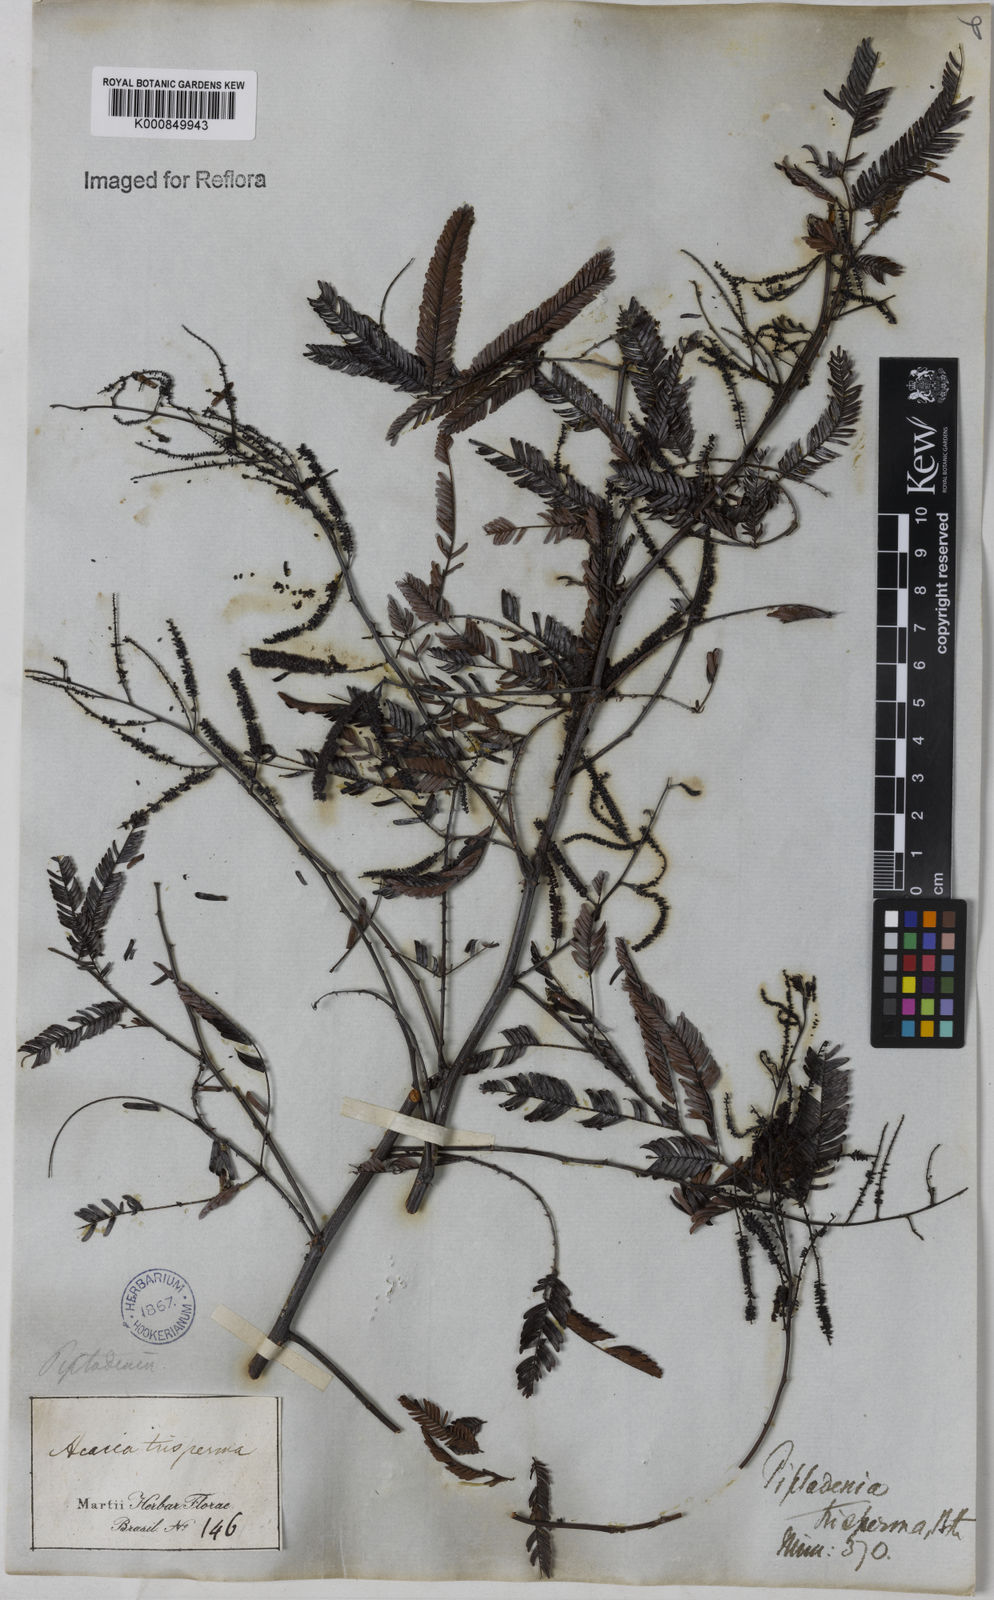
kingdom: Plantae
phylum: Tracheophyta
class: Magnoliopsida
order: Fabales
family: Fabaceae
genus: Piptadenia
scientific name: Piptadenia trisperma
